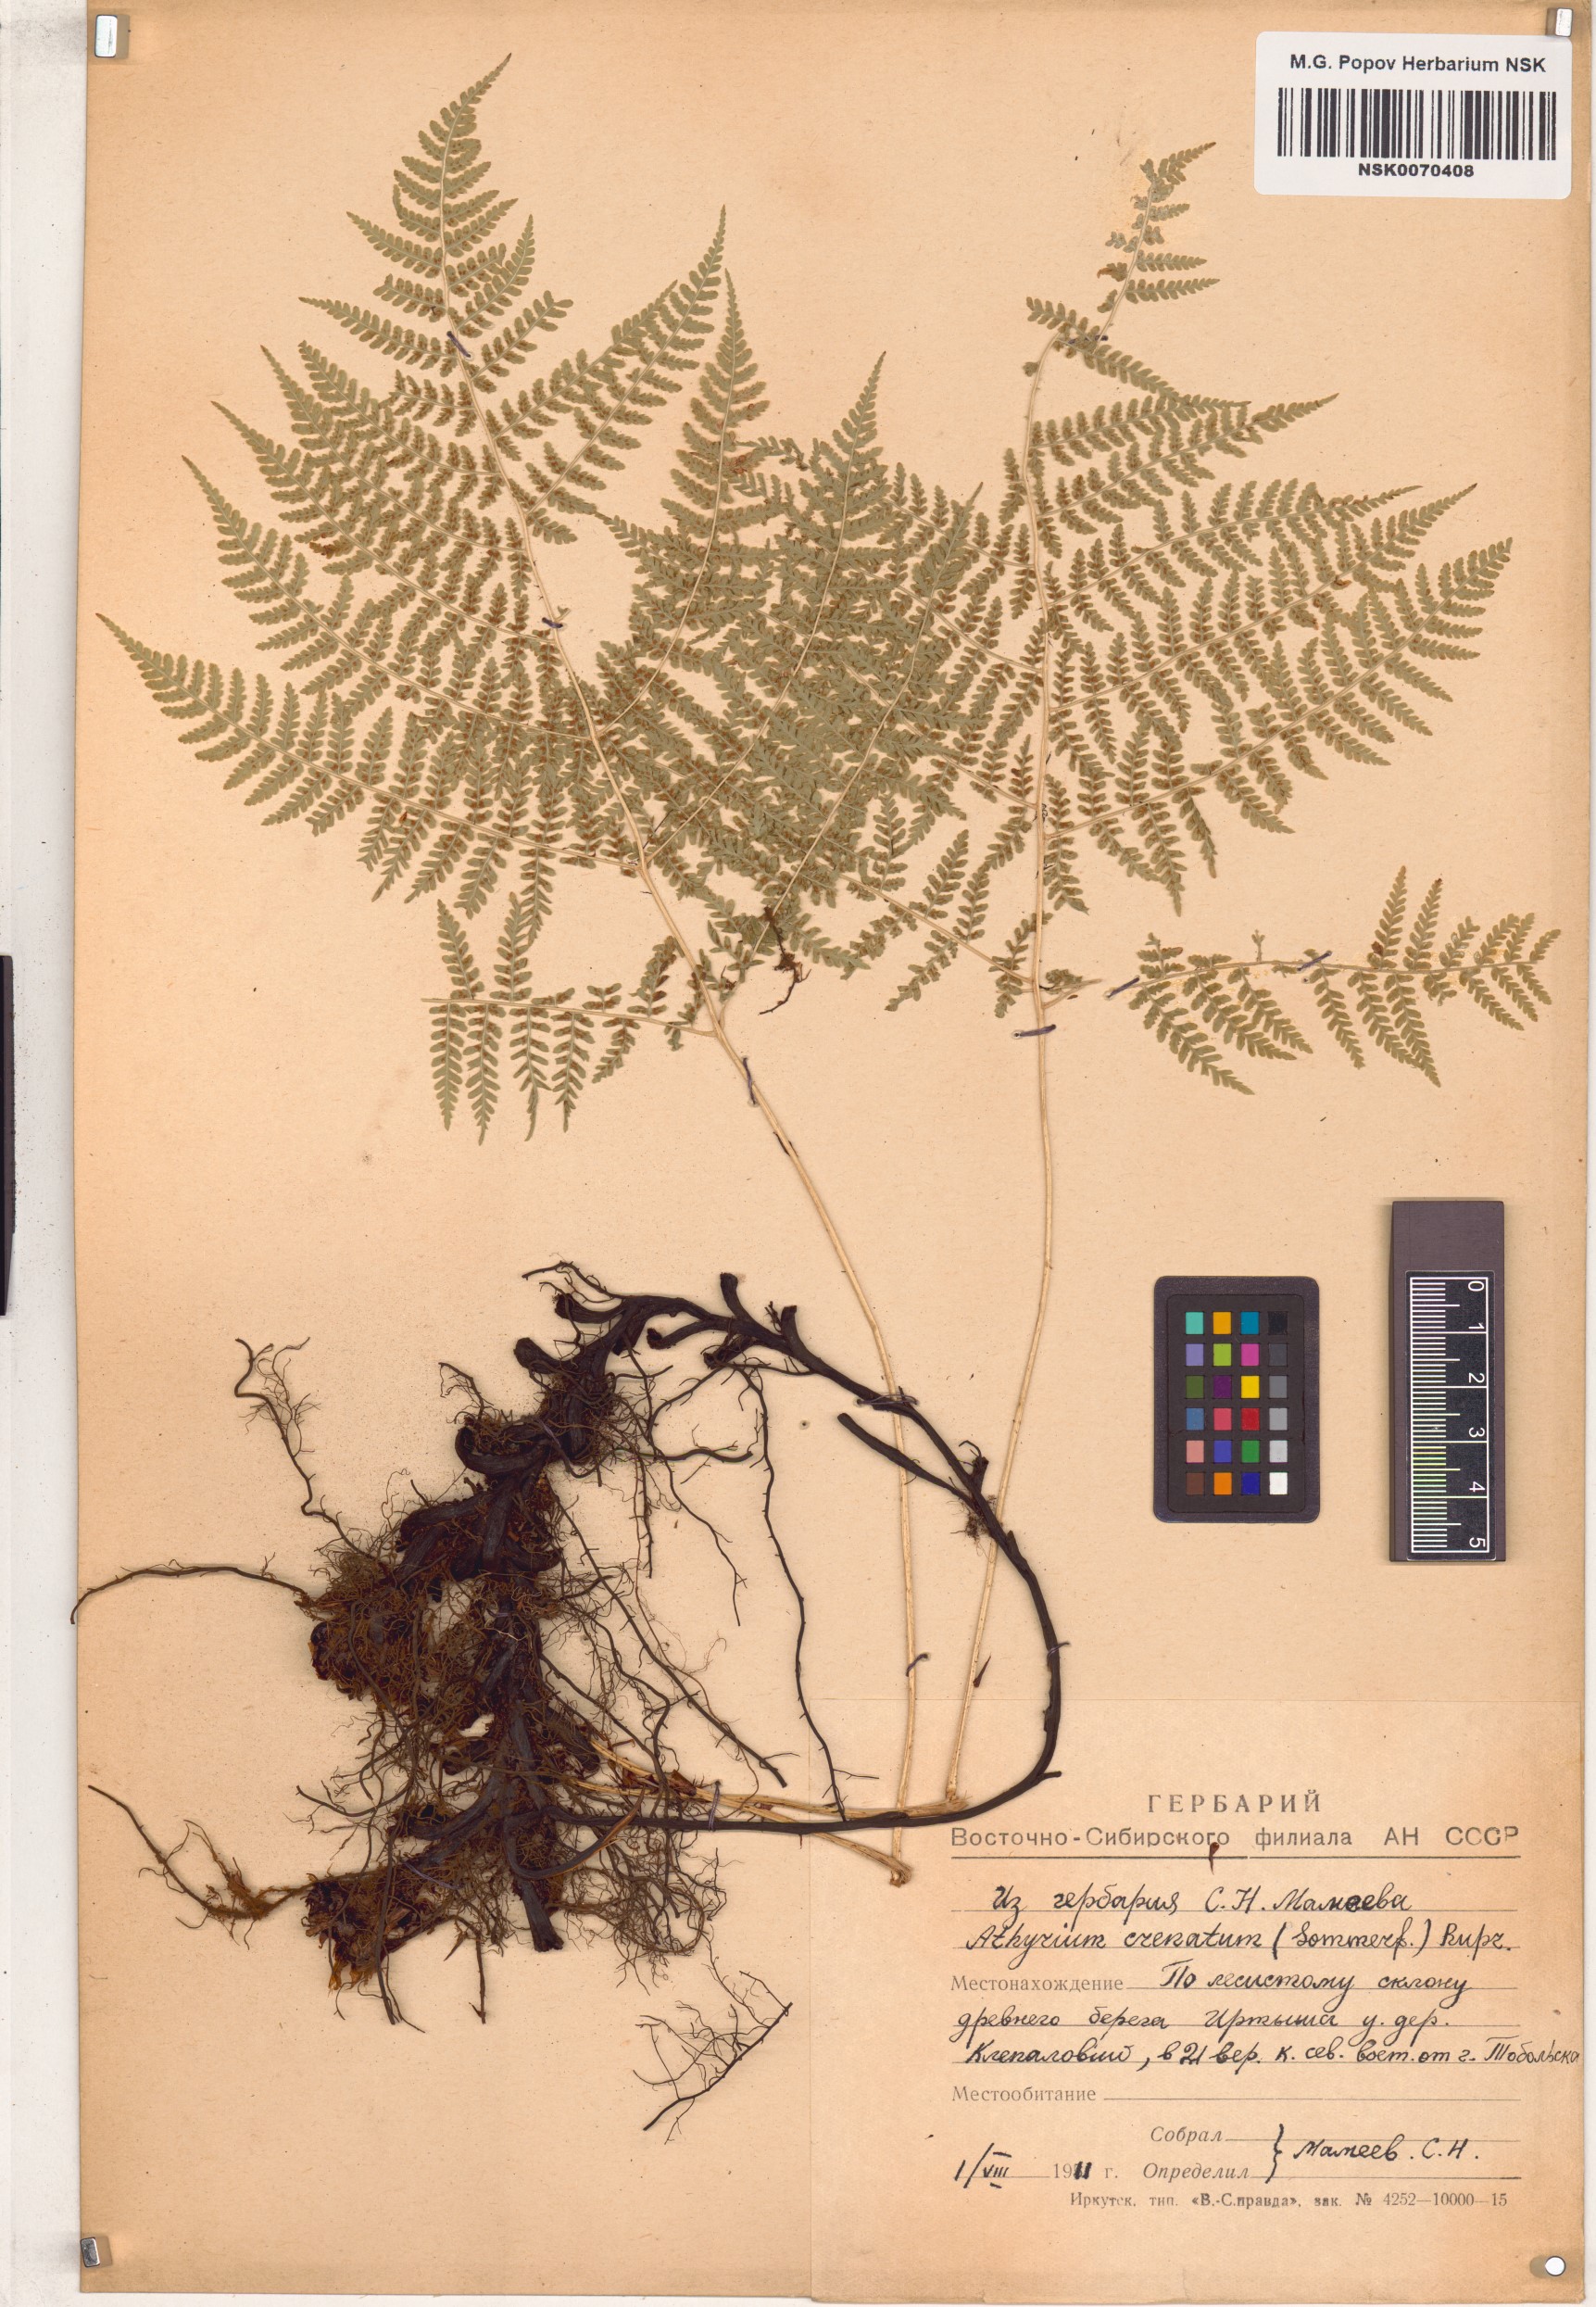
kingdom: Plantae
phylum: Tracheophyta
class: Polypodiopsida
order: Polypodiales
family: Athyriaceae
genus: Diplazium
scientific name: Diplazium sibiricum
